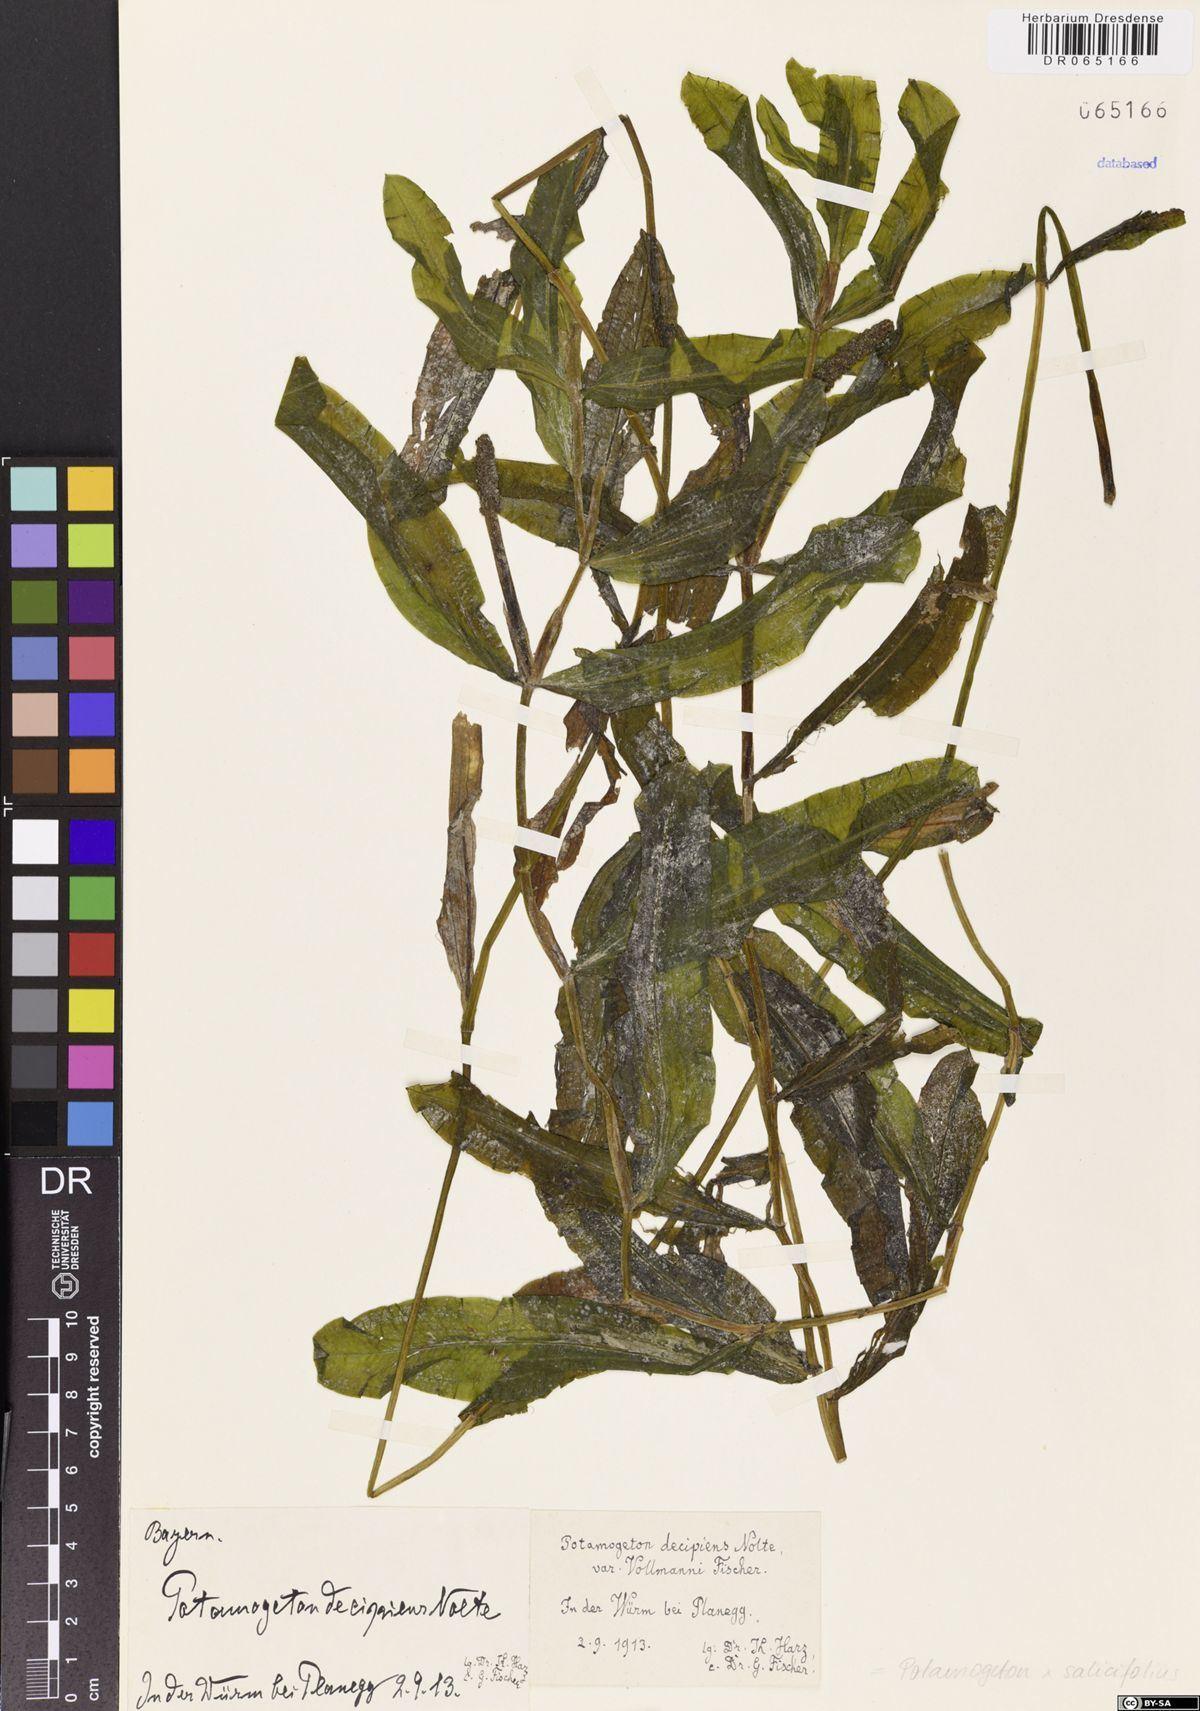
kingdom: Plantae
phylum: Tracheophyta
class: Liliopsida
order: Alismatales
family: Potamogetonaceae
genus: Potamogeton
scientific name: Potamogeton salicifolius
